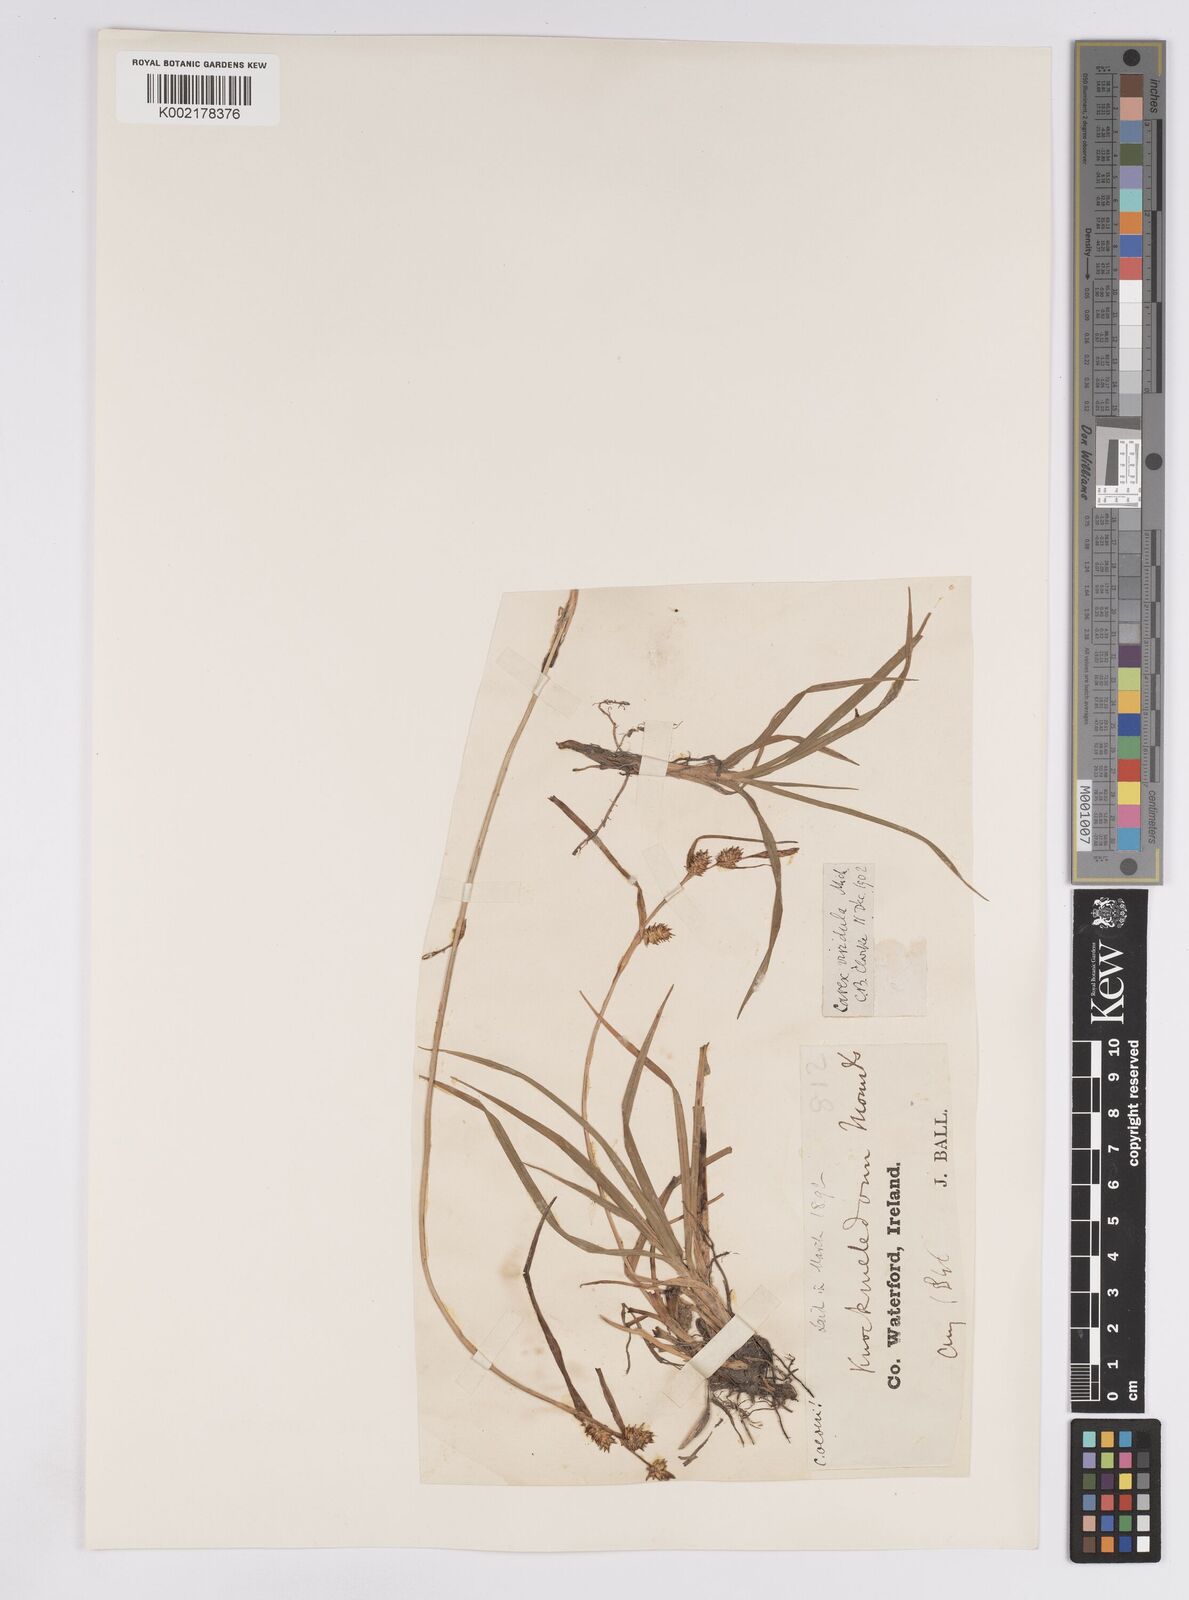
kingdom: Plantae
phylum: Tracheophyta
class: Liliopsida
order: Poales
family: Cyperaceae
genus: Carex
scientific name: Carex demissa
